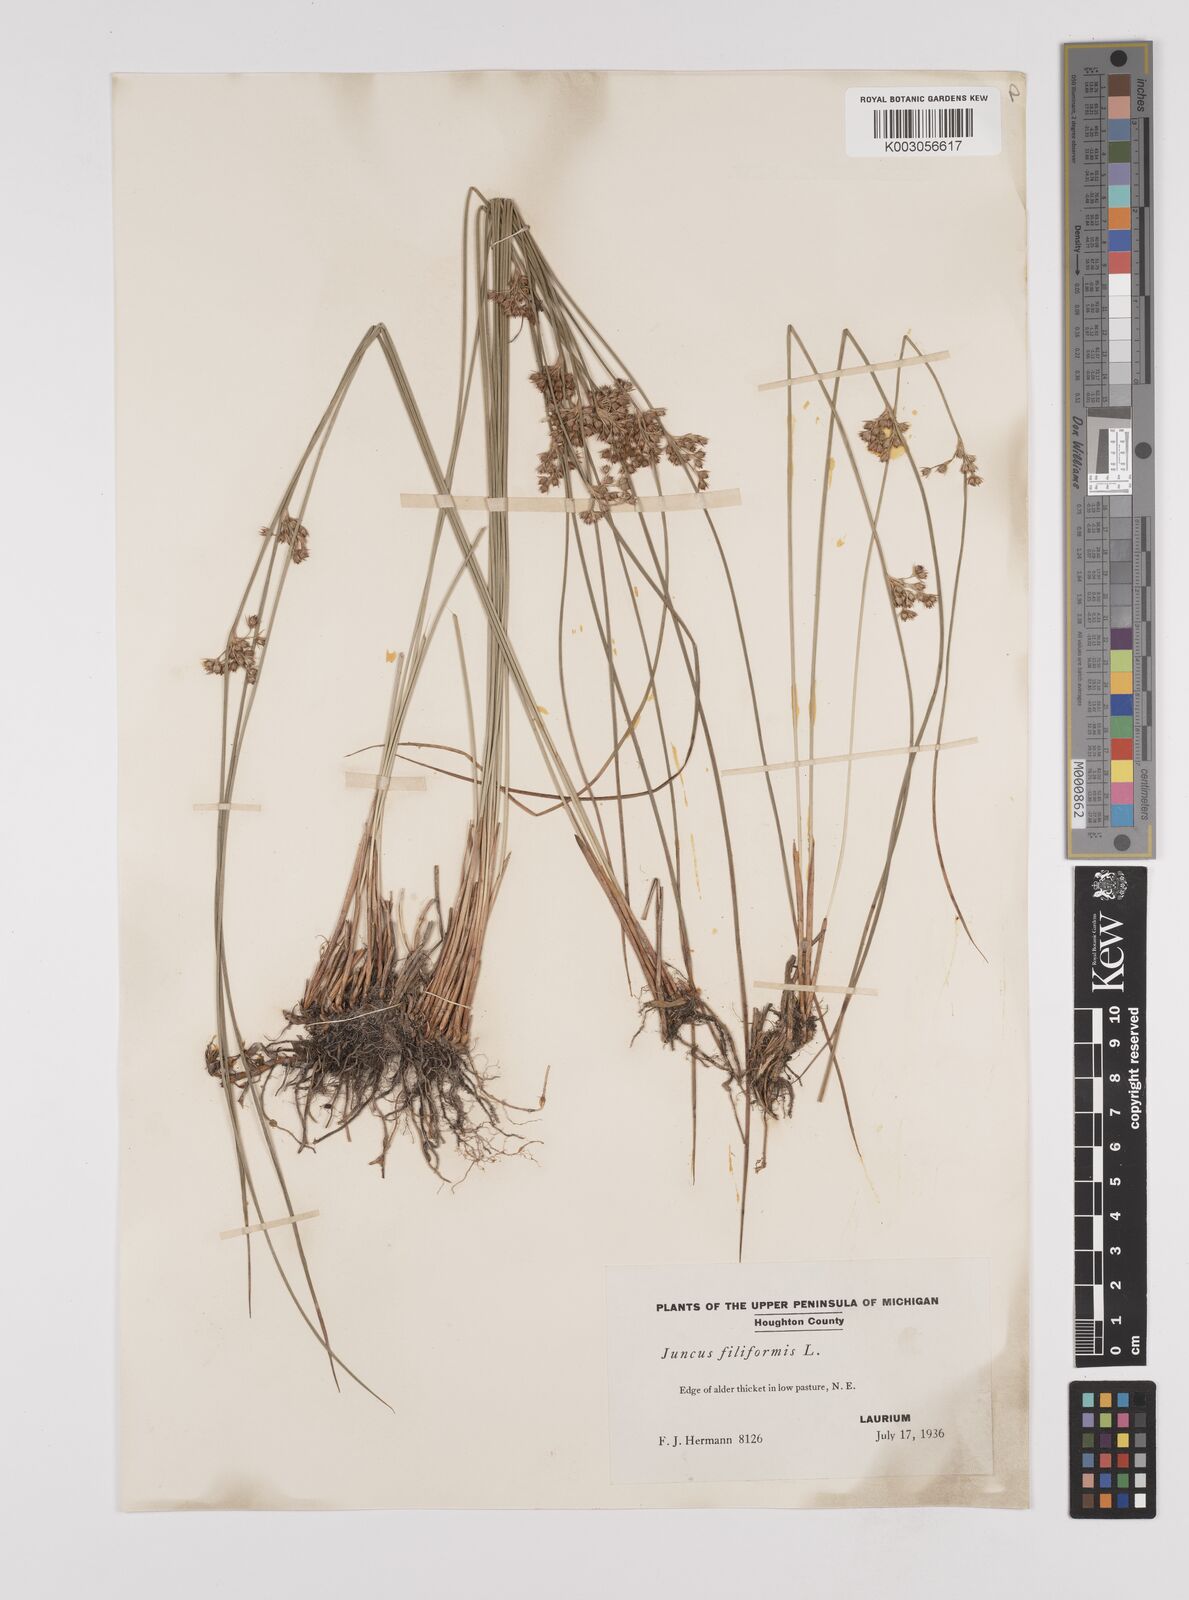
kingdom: Plantae
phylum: Tracheophyta
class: Liliopsida
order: Poales
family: Juncaceae
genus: Juncus
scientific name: Juncus filiformis
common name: Thread rush
